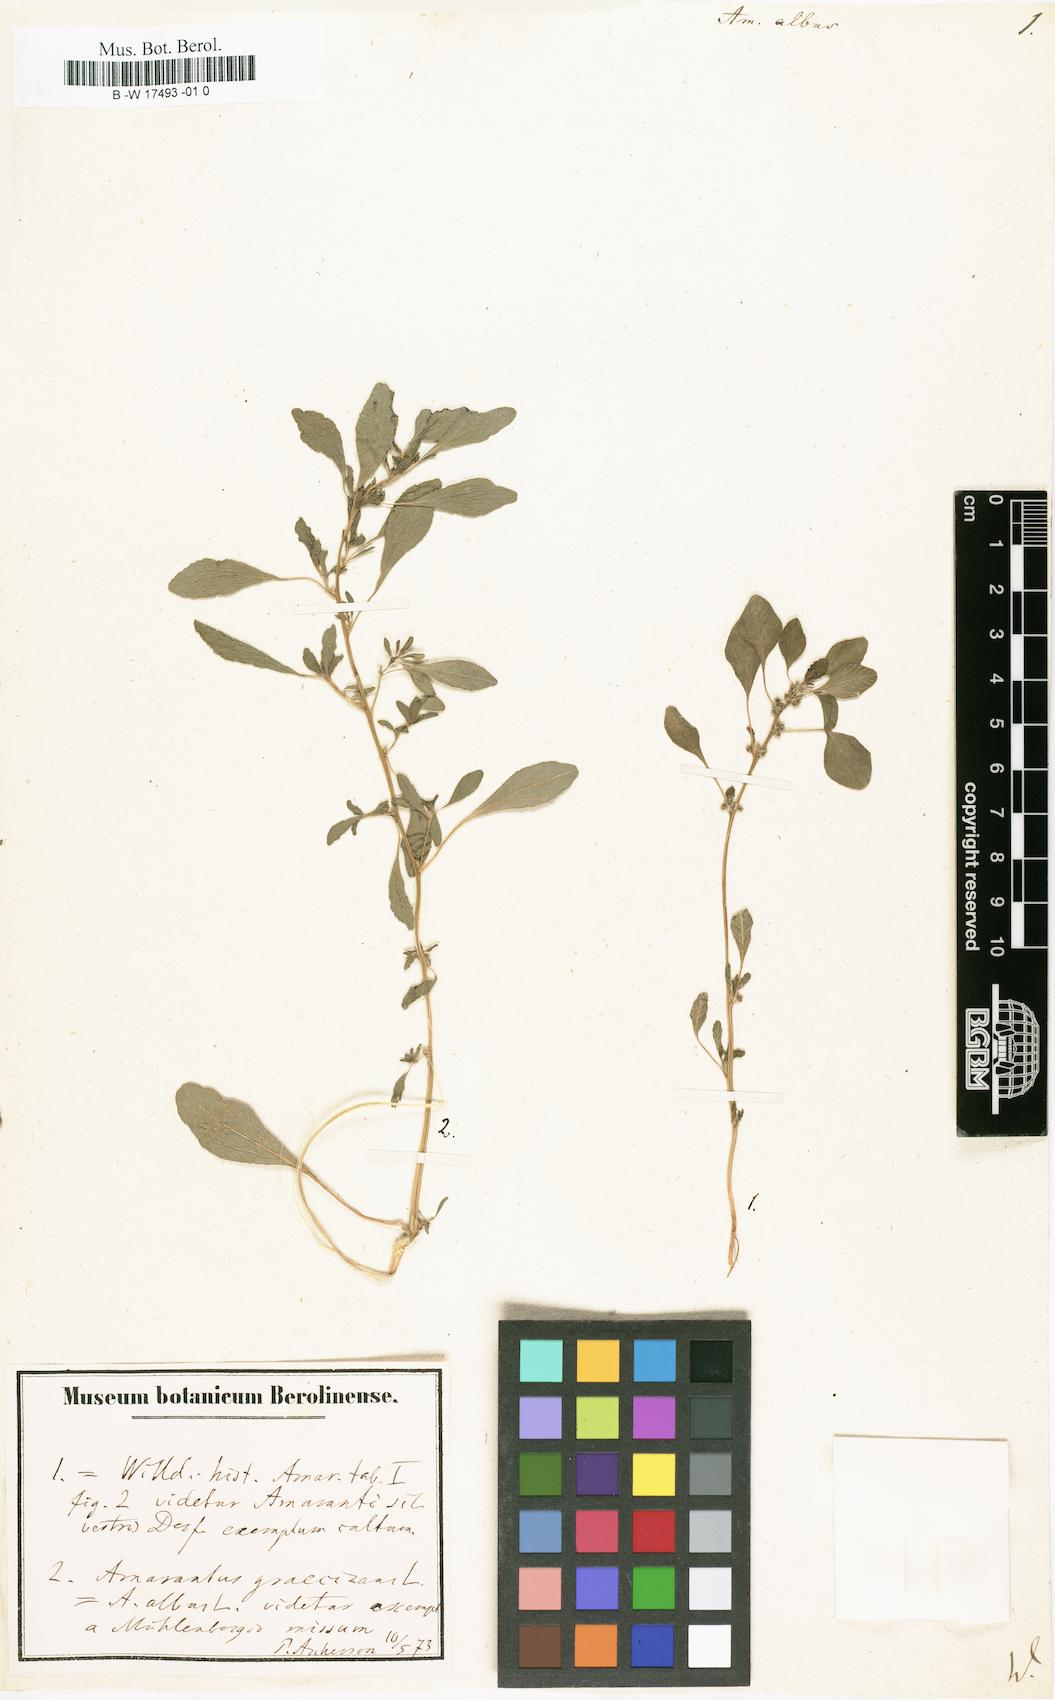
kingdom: Plantae
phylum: Tracheophyta
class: Magnoliopsida
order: Caryophyllales
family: Amaranthaceae
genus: Amaranthus
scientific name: Amaranthus albus
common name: White pigweed
